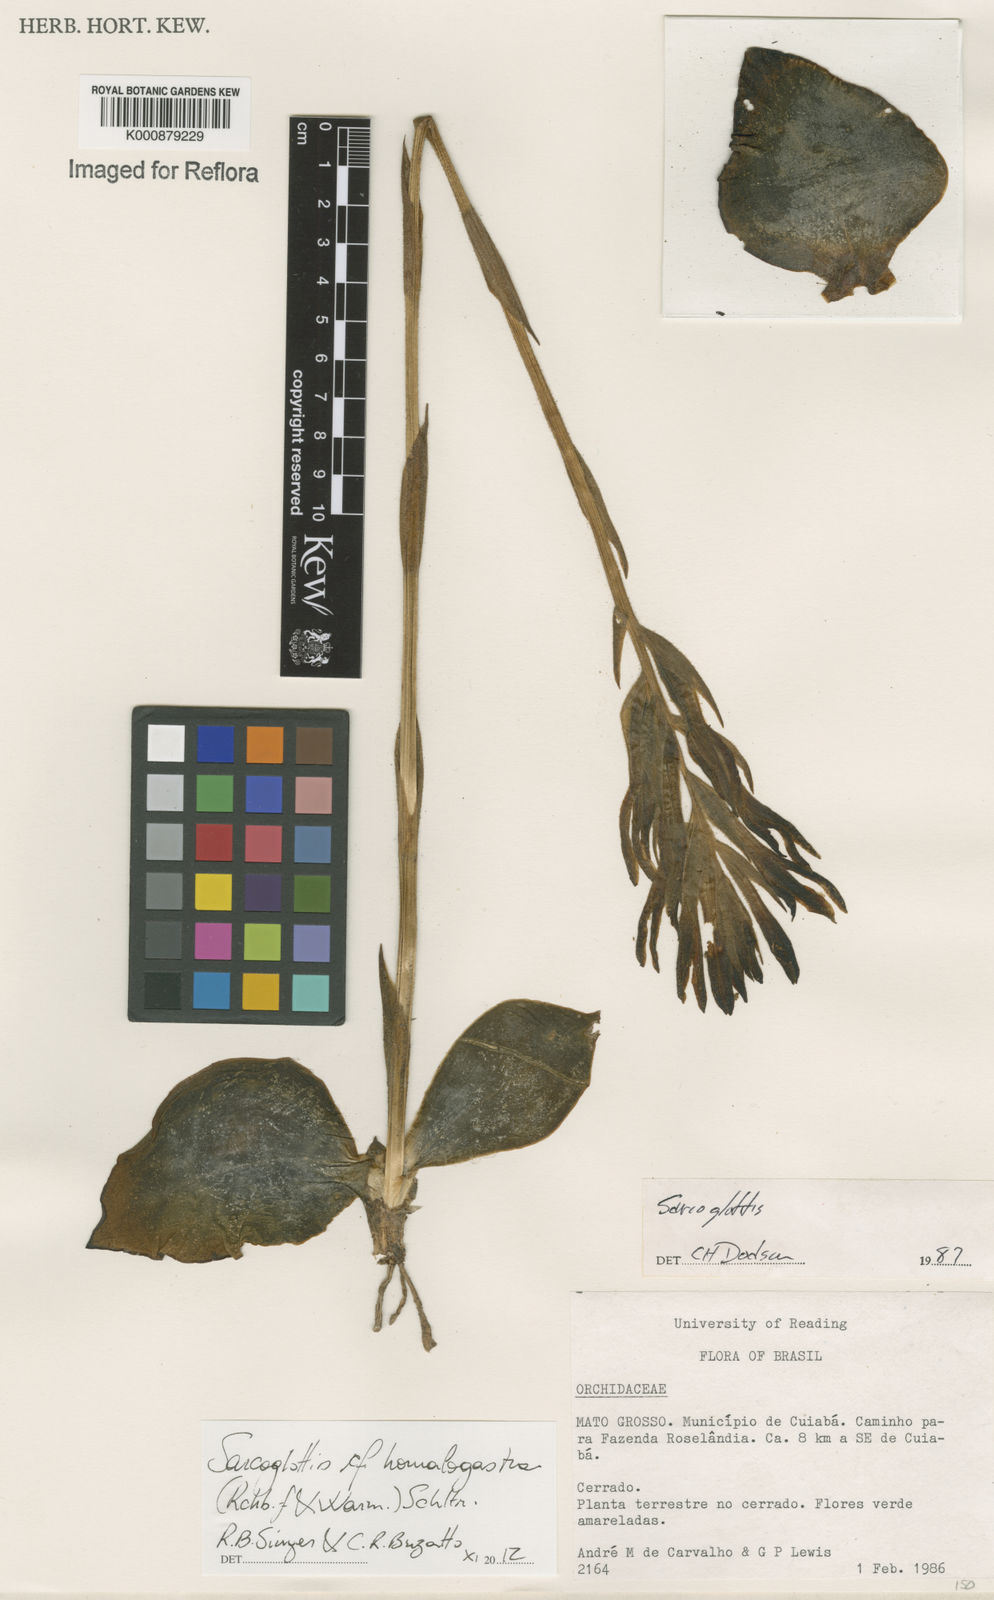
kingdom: Plantae
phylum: Tracheophyta
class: Liliopsida
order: Asparagales
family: Orchidaceae
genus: Sarcoglottis
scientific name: Sarcoglottis homalogastra
